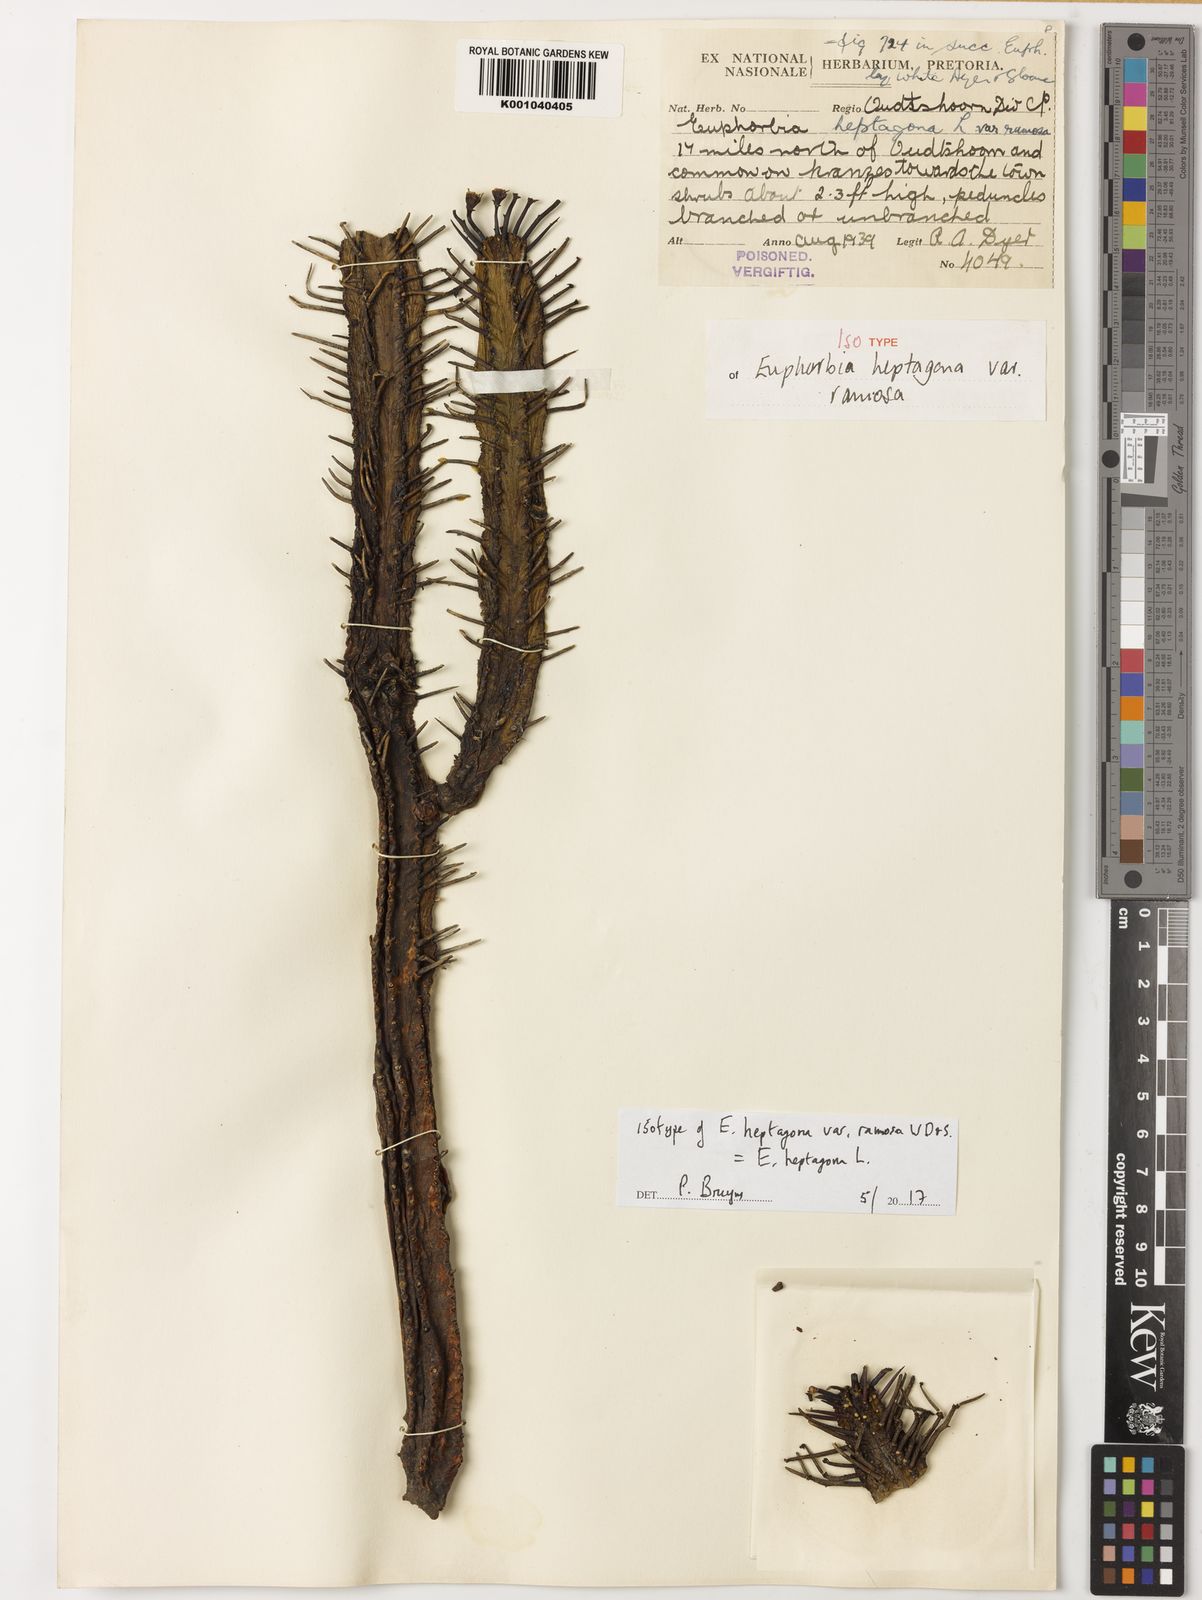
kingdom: Plantae
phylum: Tracheophyta
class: Magnoliopsida
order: Malpighiales
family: Euphorbiaceae
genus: Euphorbia
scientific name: Euphorbia heptagona
